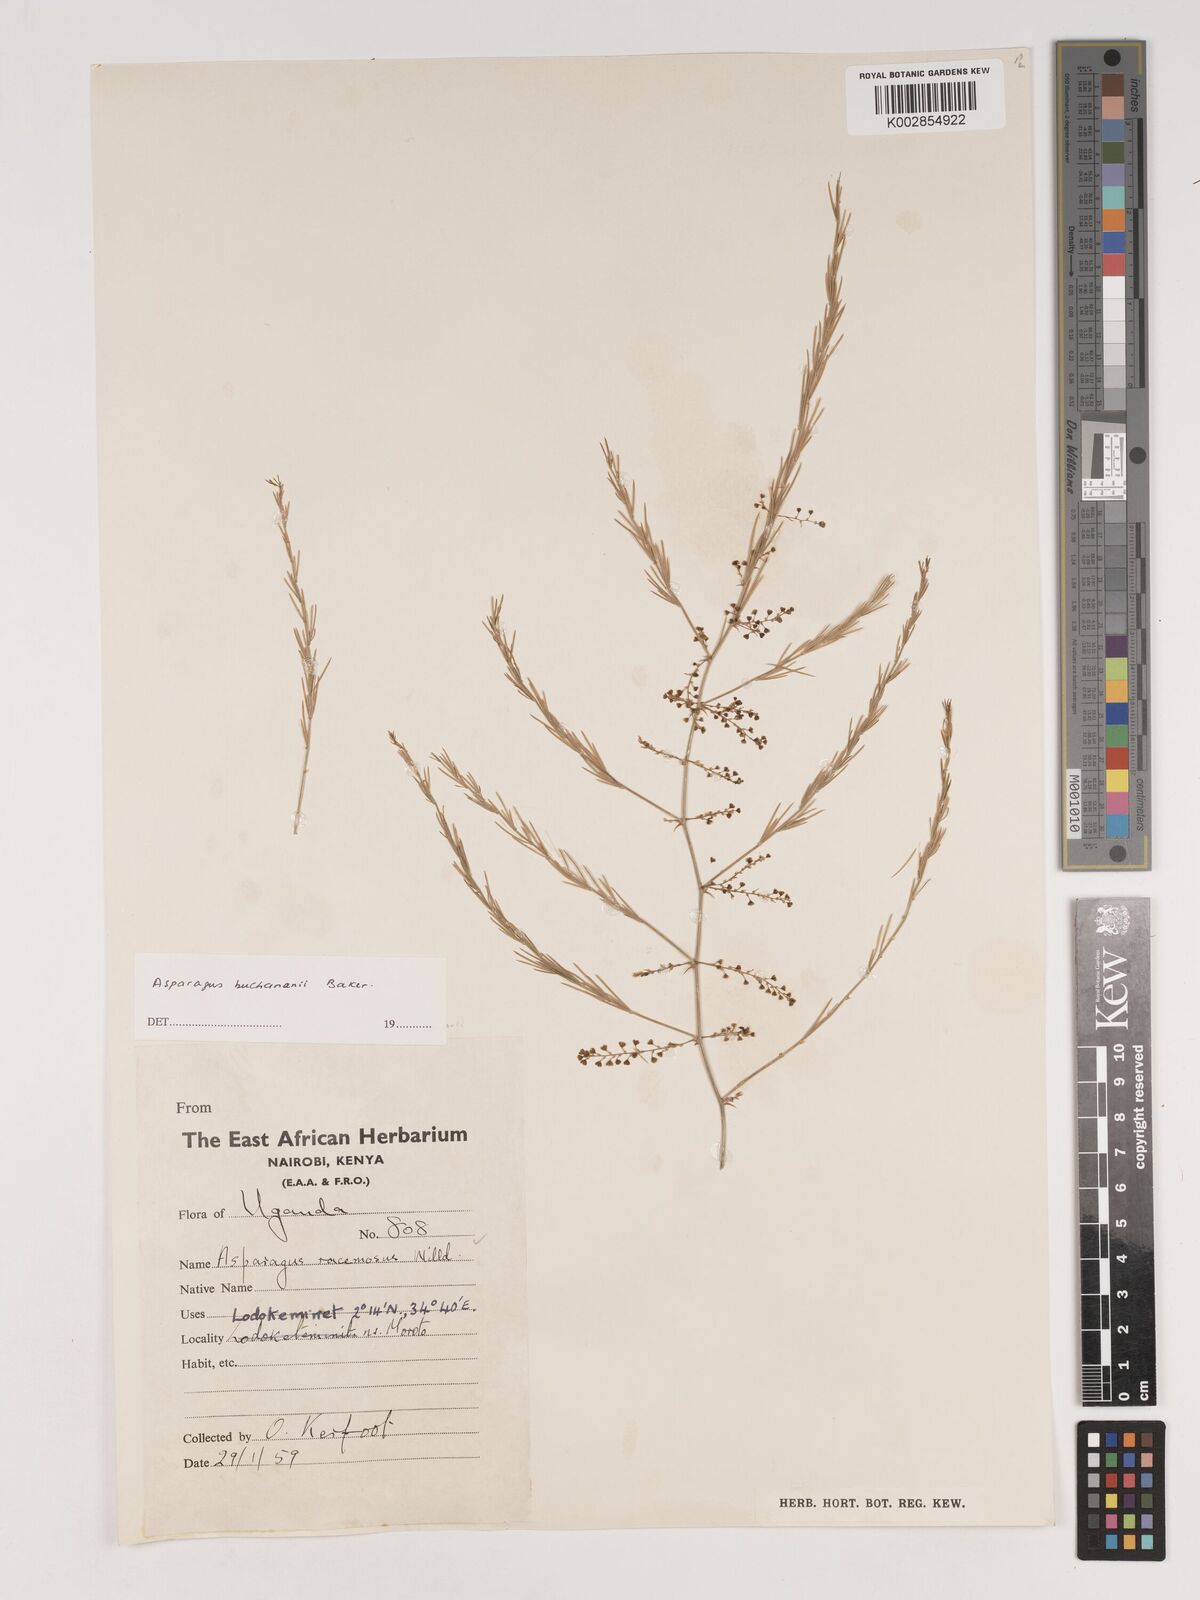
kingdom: Plantae
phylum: Tracheophyta
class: Liliopsida
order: Asparagales
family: Asparagaceae
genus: Asparagus
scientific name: Asparagus buchananii
